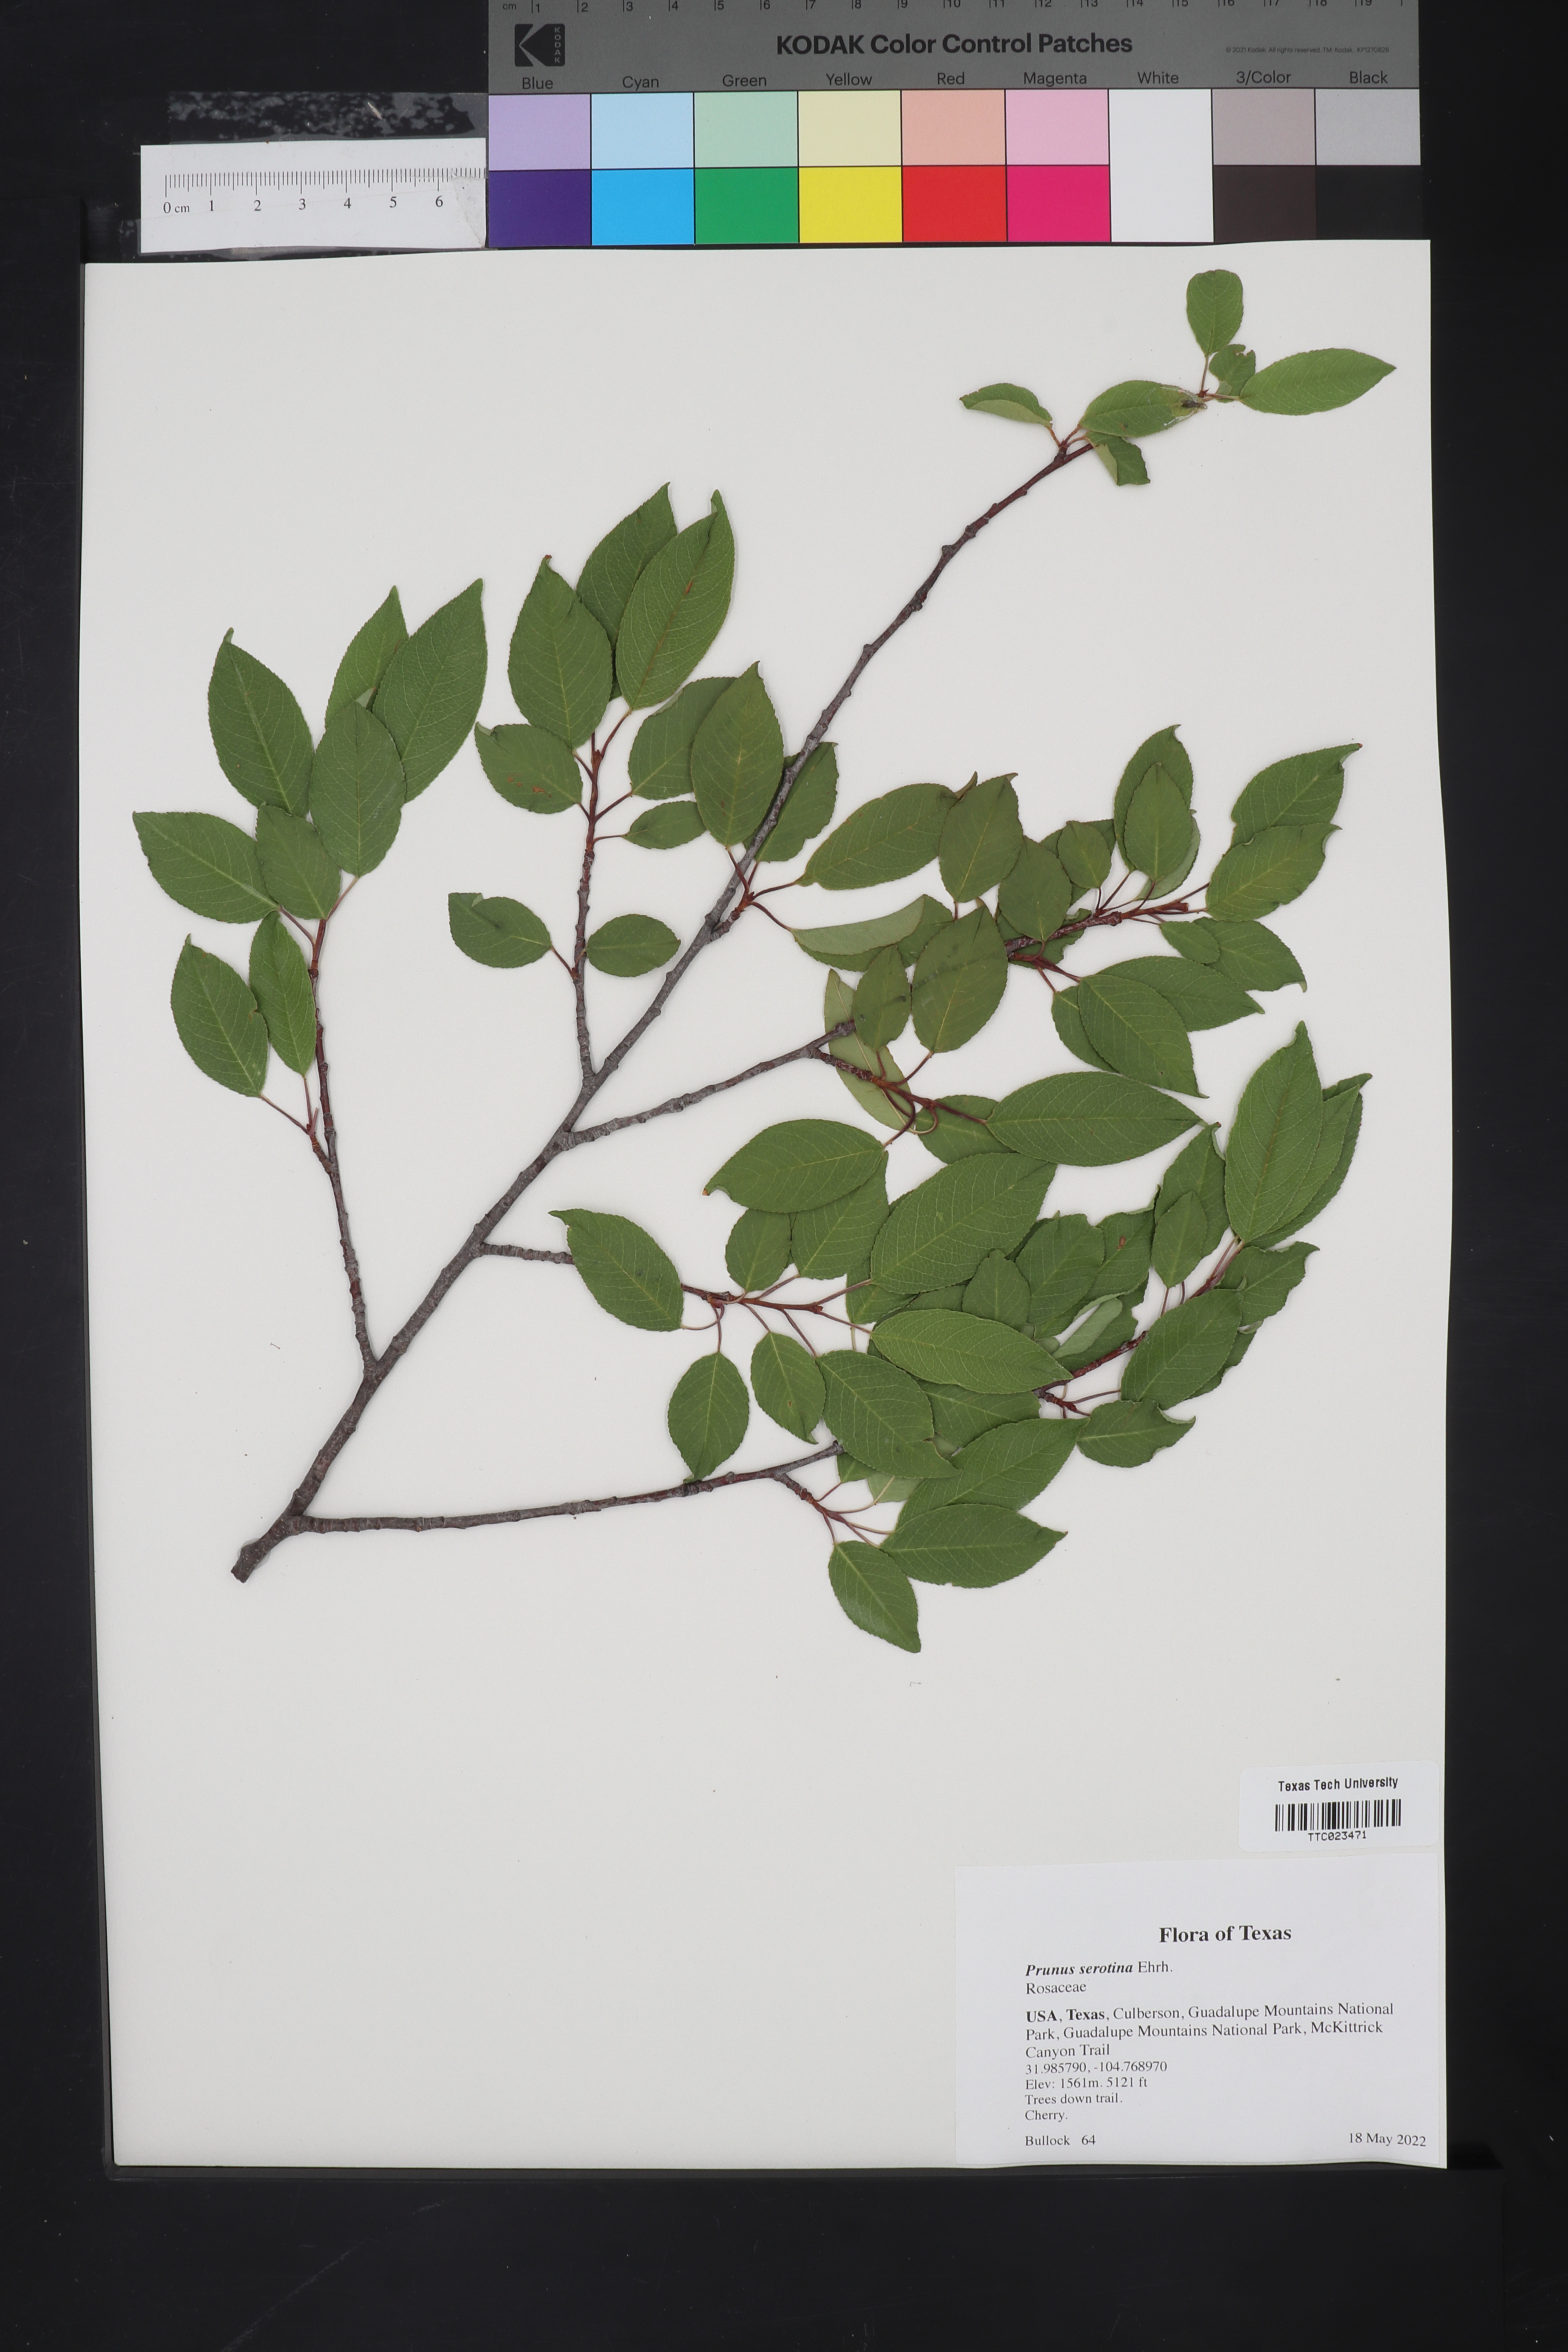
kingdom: Plantae
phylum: Tracheophyta
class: Magnoliopsida
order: Rosales
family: Rosaceae
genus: Prunus
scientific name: Prunus serotina
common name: Black cherry
